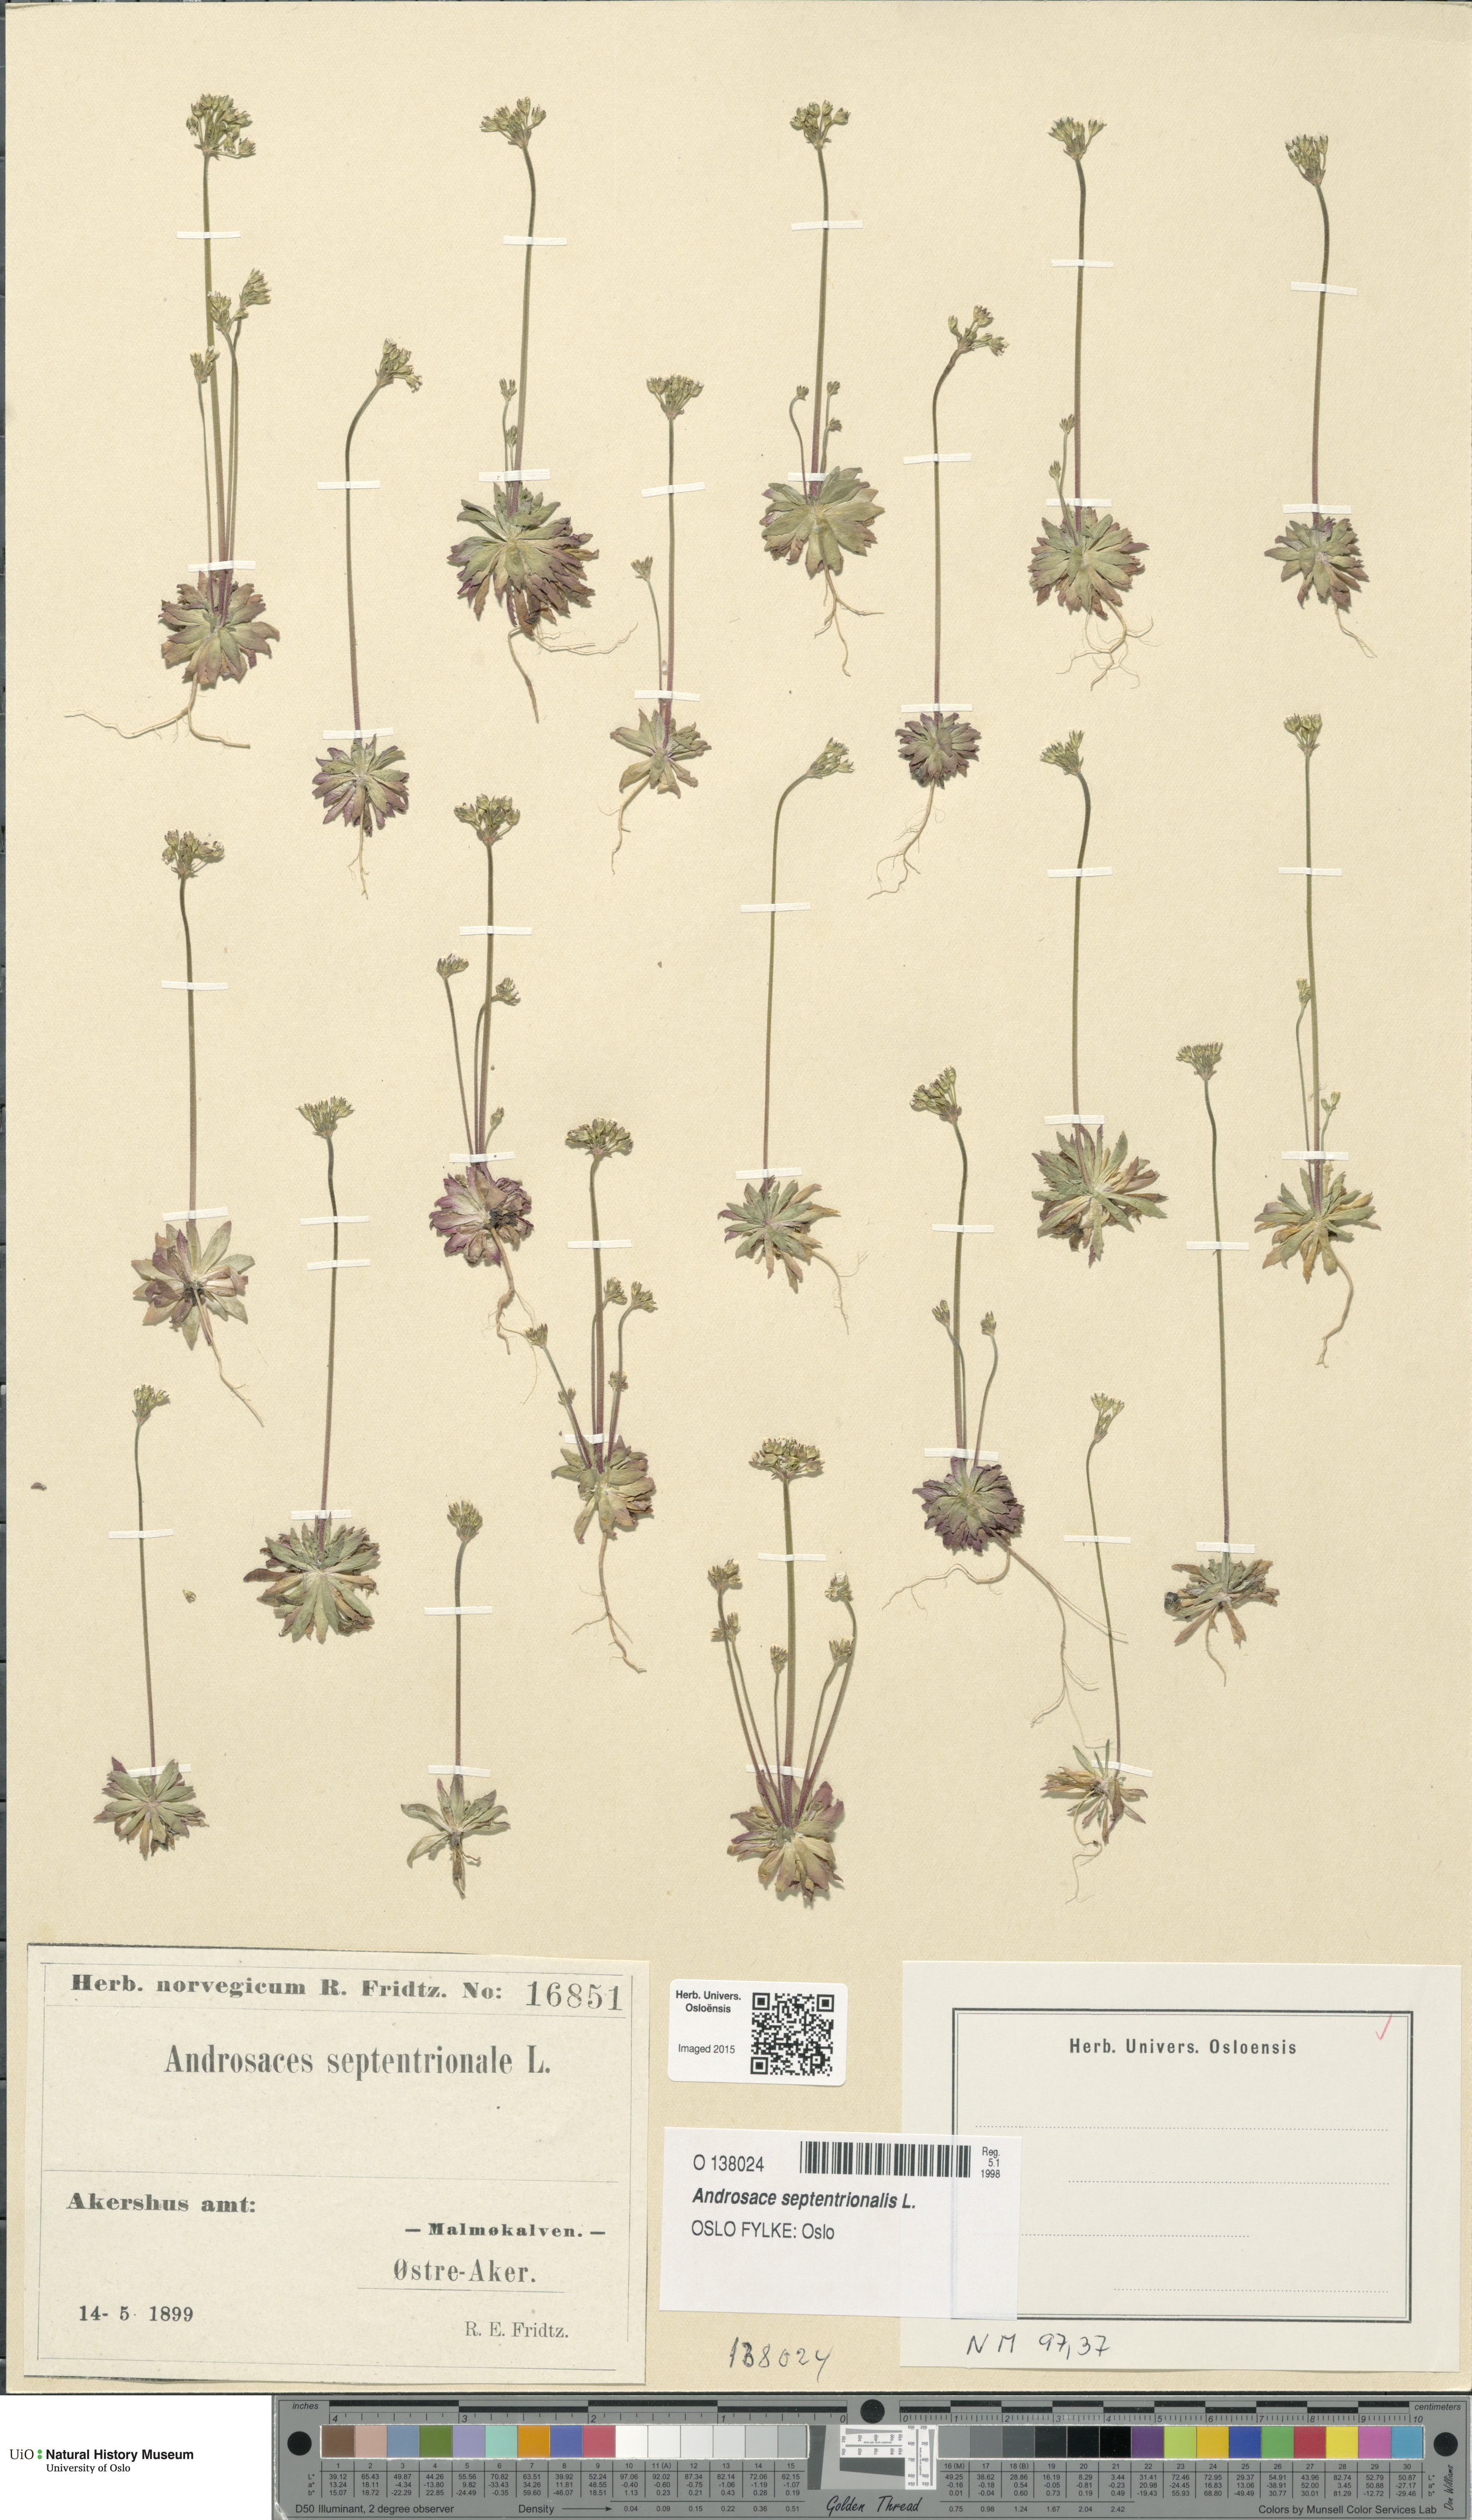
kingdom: Plantae
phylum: Tracheophyta
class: Magnoliopsida
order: Ericales
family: Primulaceae
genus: Androsace
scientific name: Androsace septentrionalis
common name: Hairy northern fairy-candelabra
